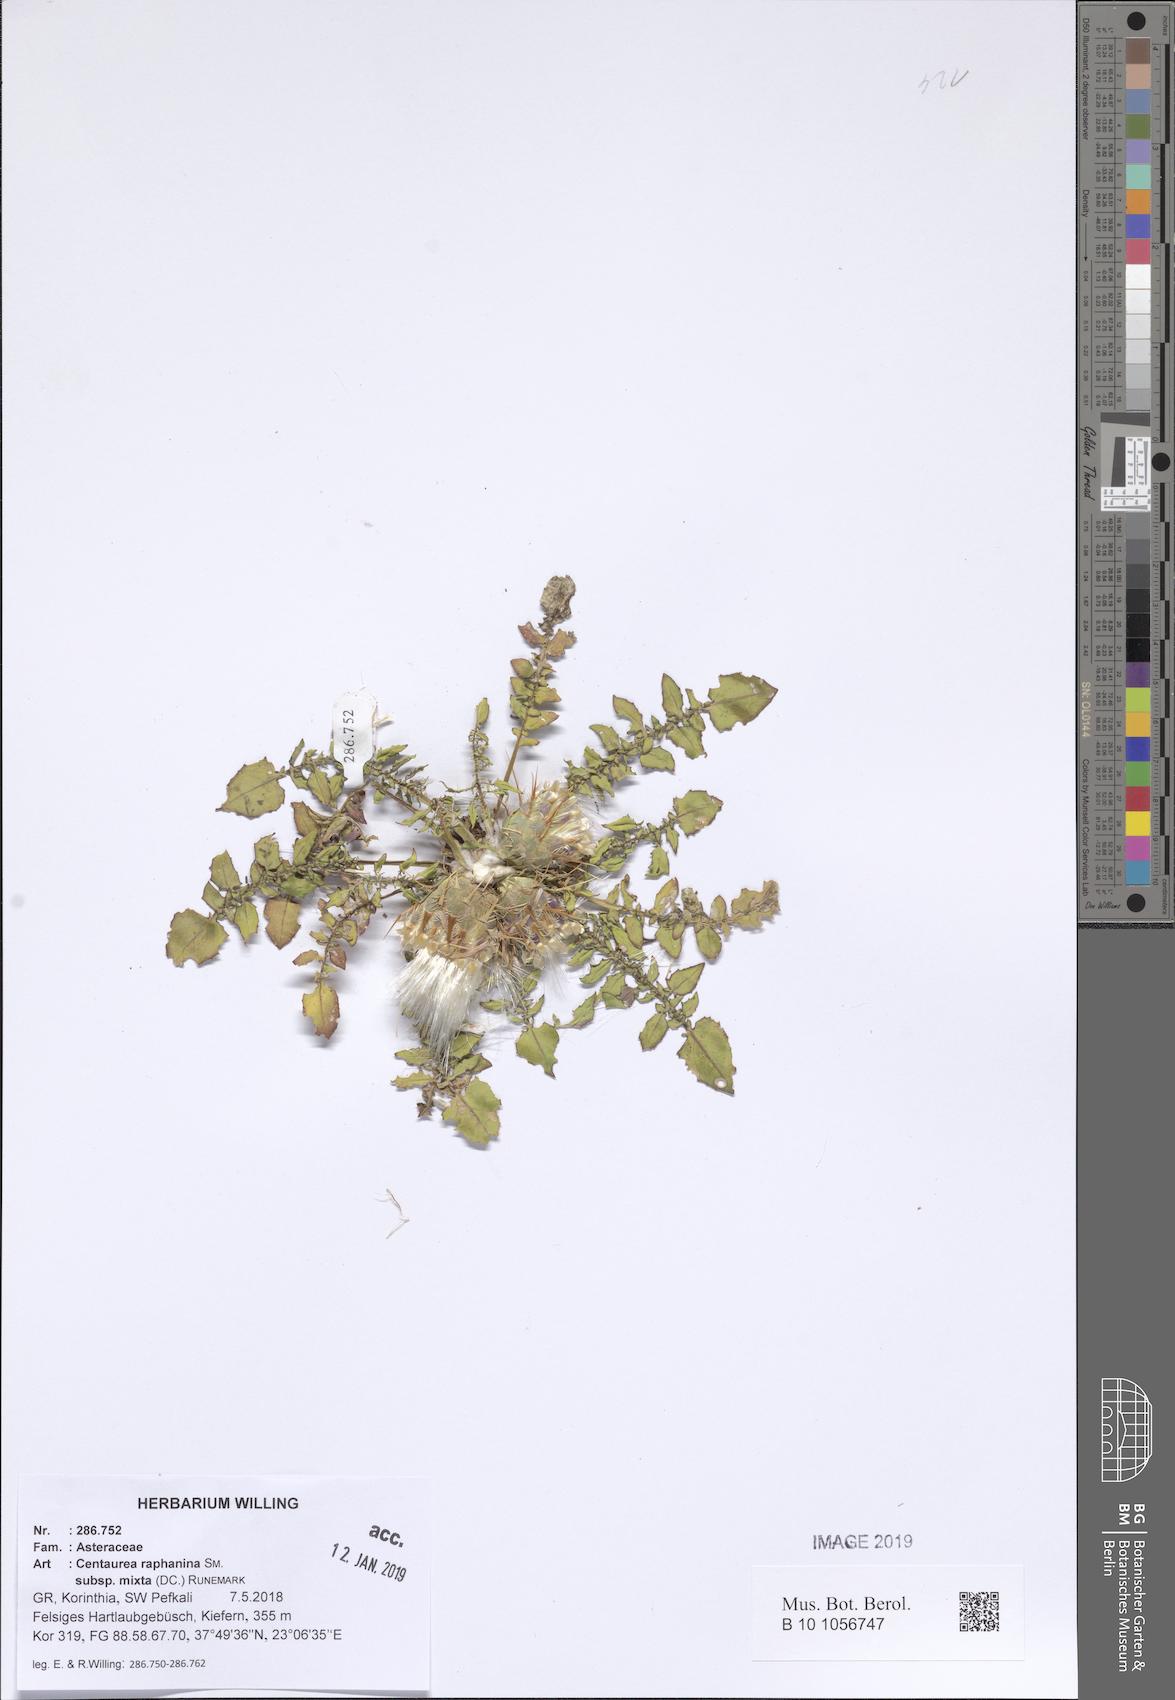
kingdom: Plantae
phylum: Tracheophyta
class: Magnoliopsida
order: Asterales
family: Asteraceae
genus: Centaurea
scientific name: Centaurea raphanina
